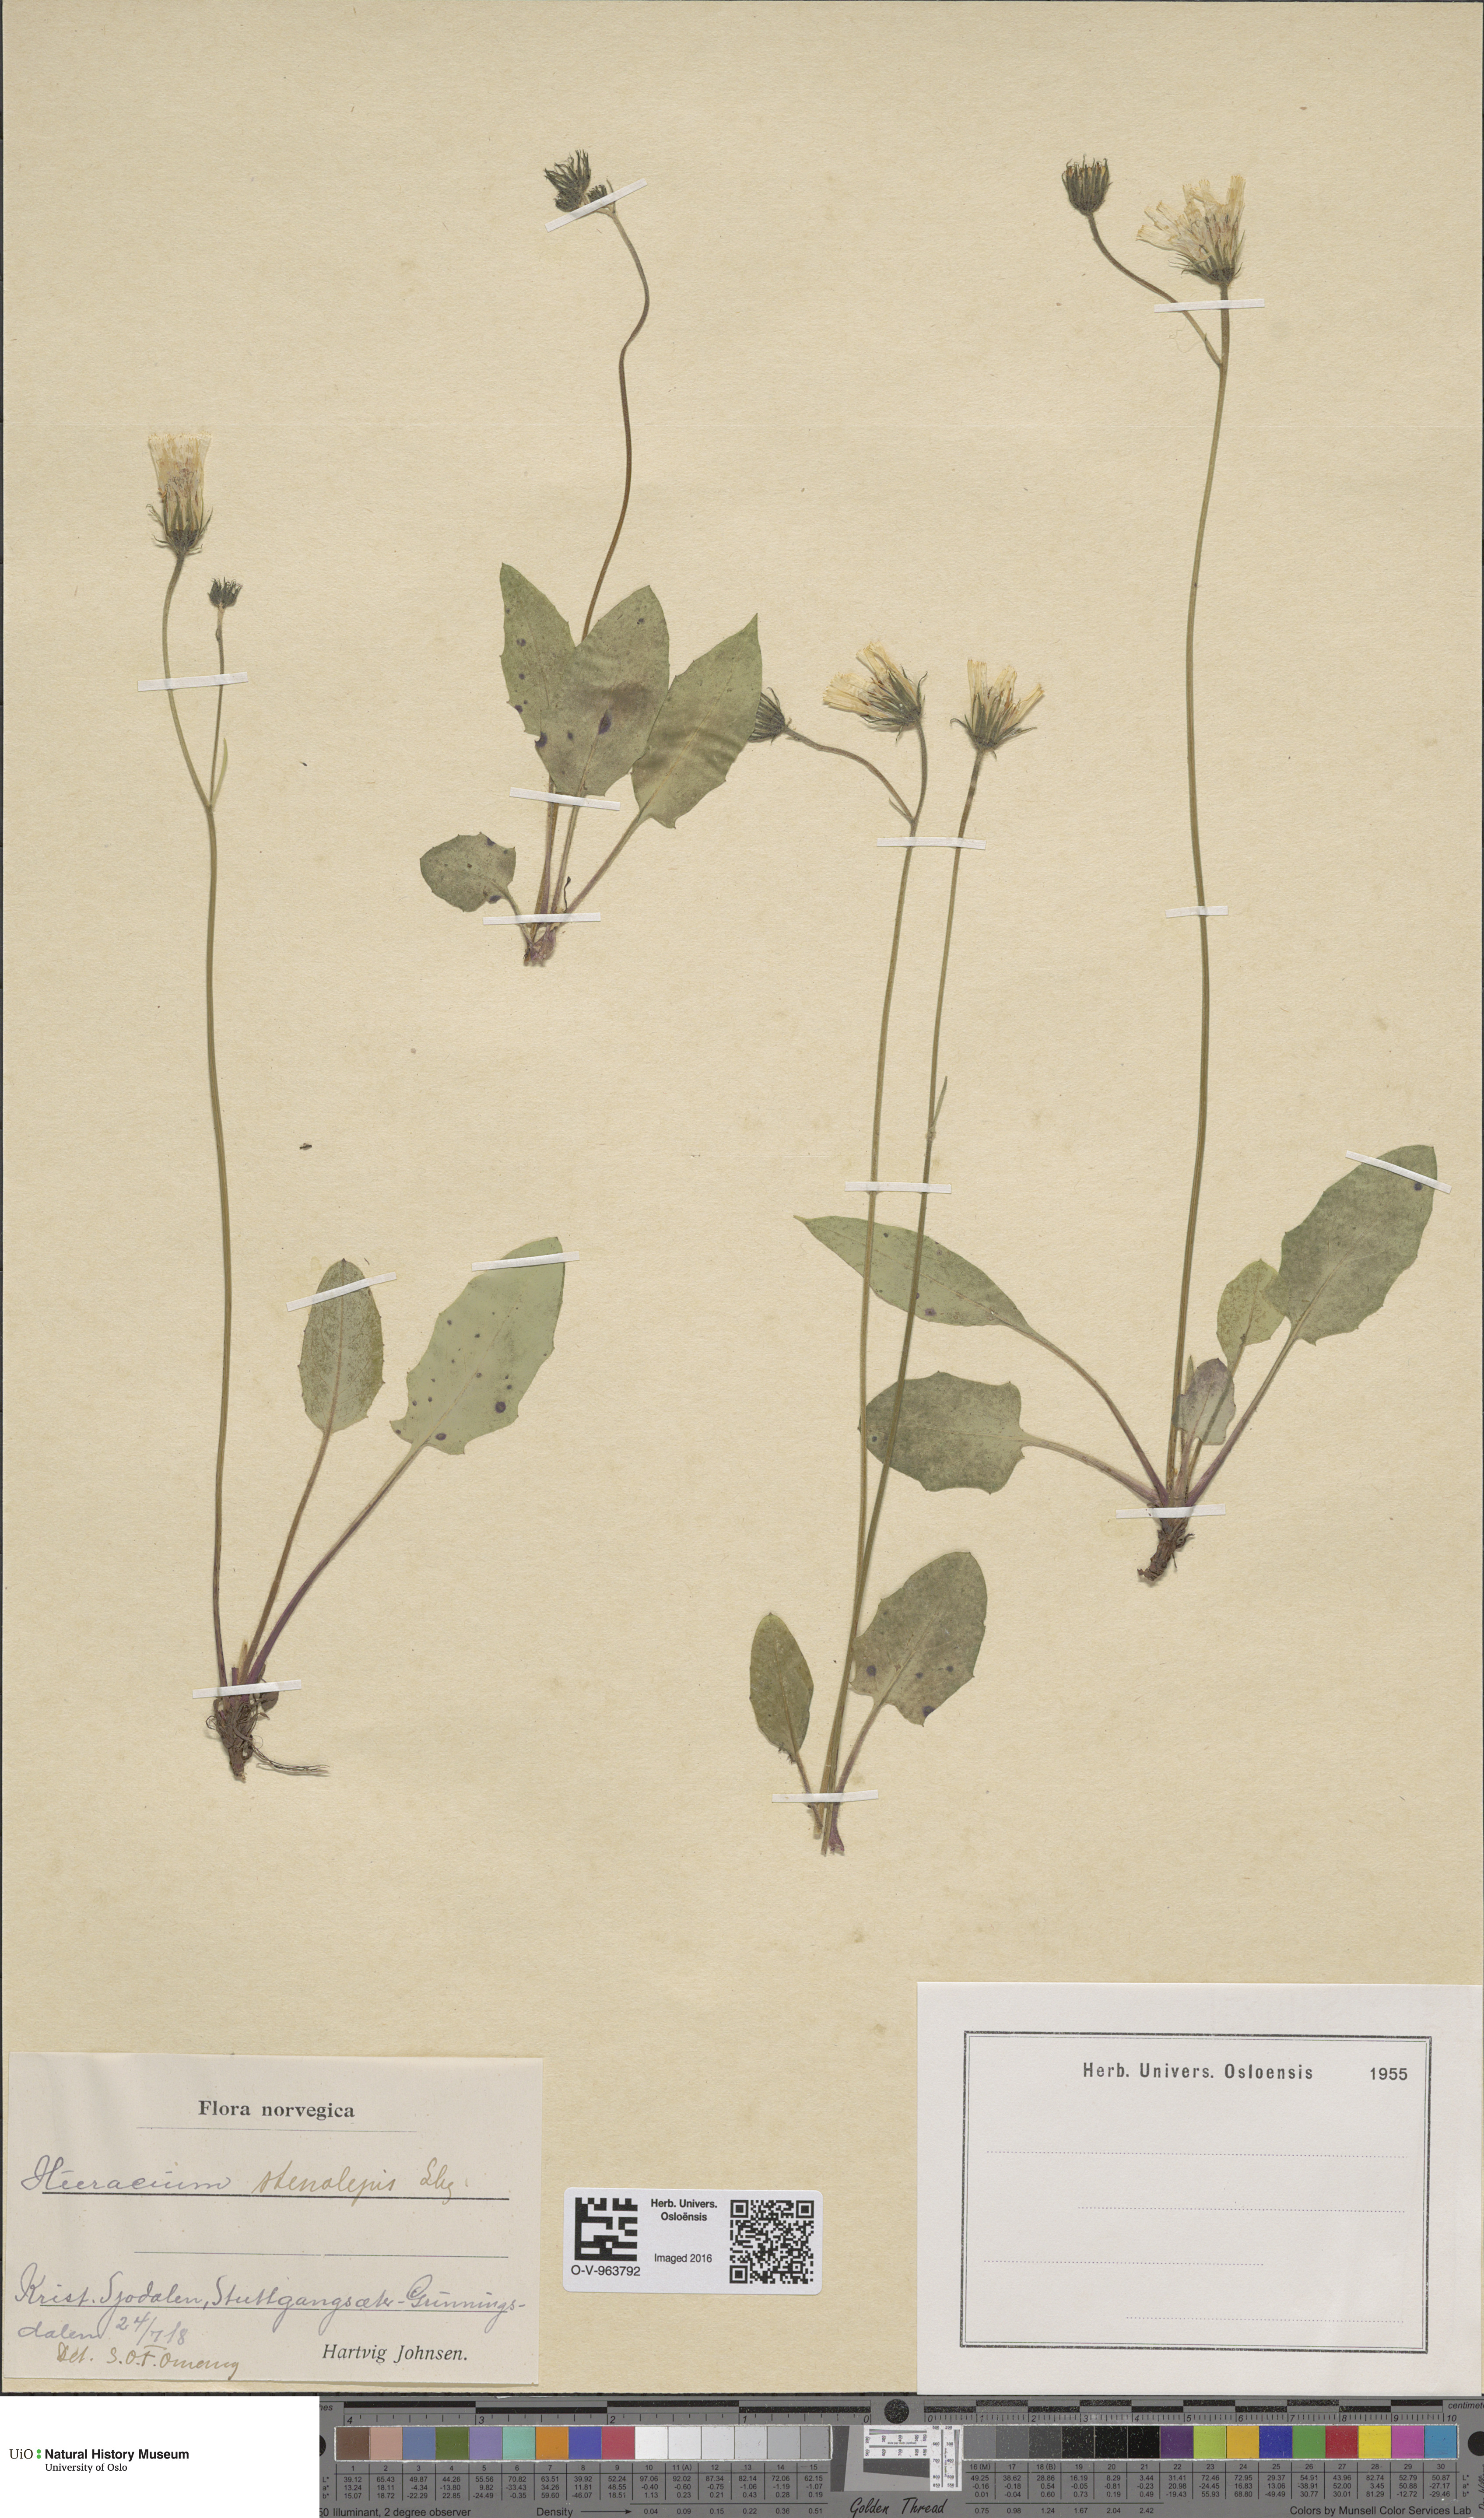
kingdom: Plantae
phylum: Tracheophyta
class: Magnoliopsida
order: Asterales
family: Asteraceae
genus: Hieracium
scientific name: Hieracium bifidum
